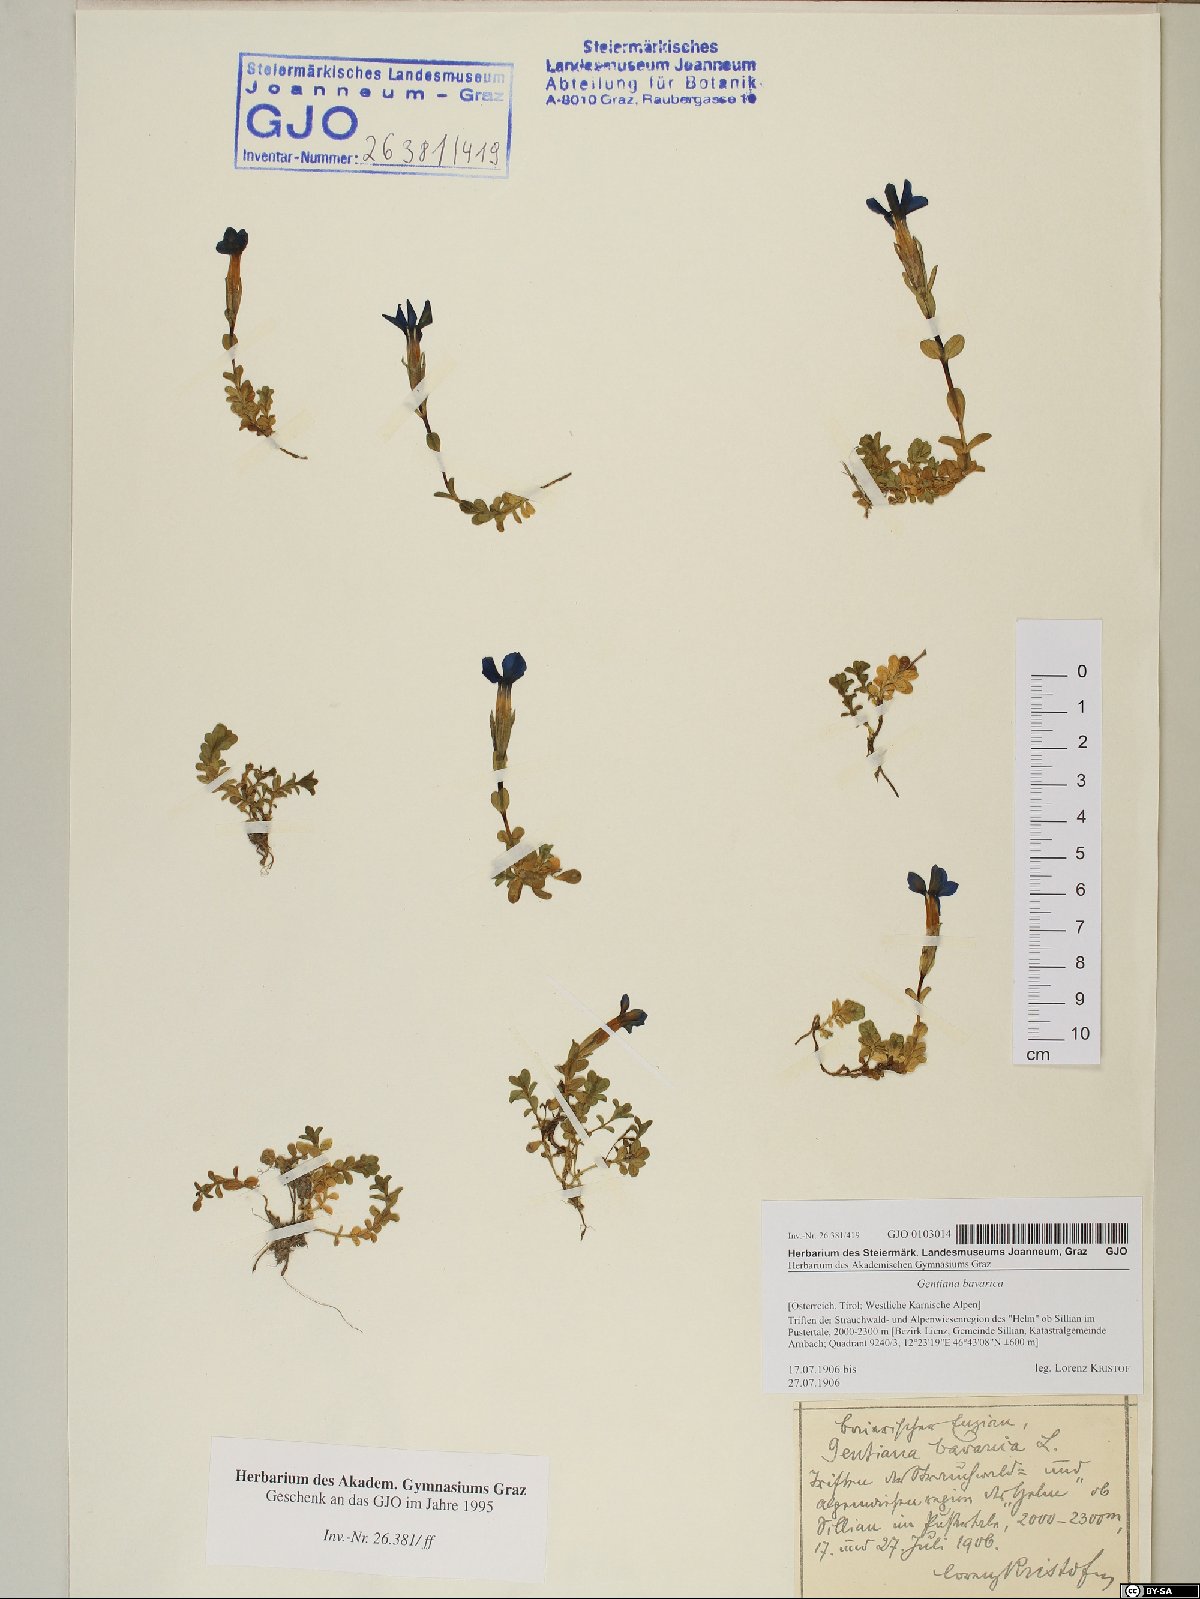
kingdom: Plantae
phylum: Tracheophyta
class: Magnoliopsida
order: Gentianales
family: Gentianaceae
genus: Gentiana
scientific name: Gentiana bavarica
